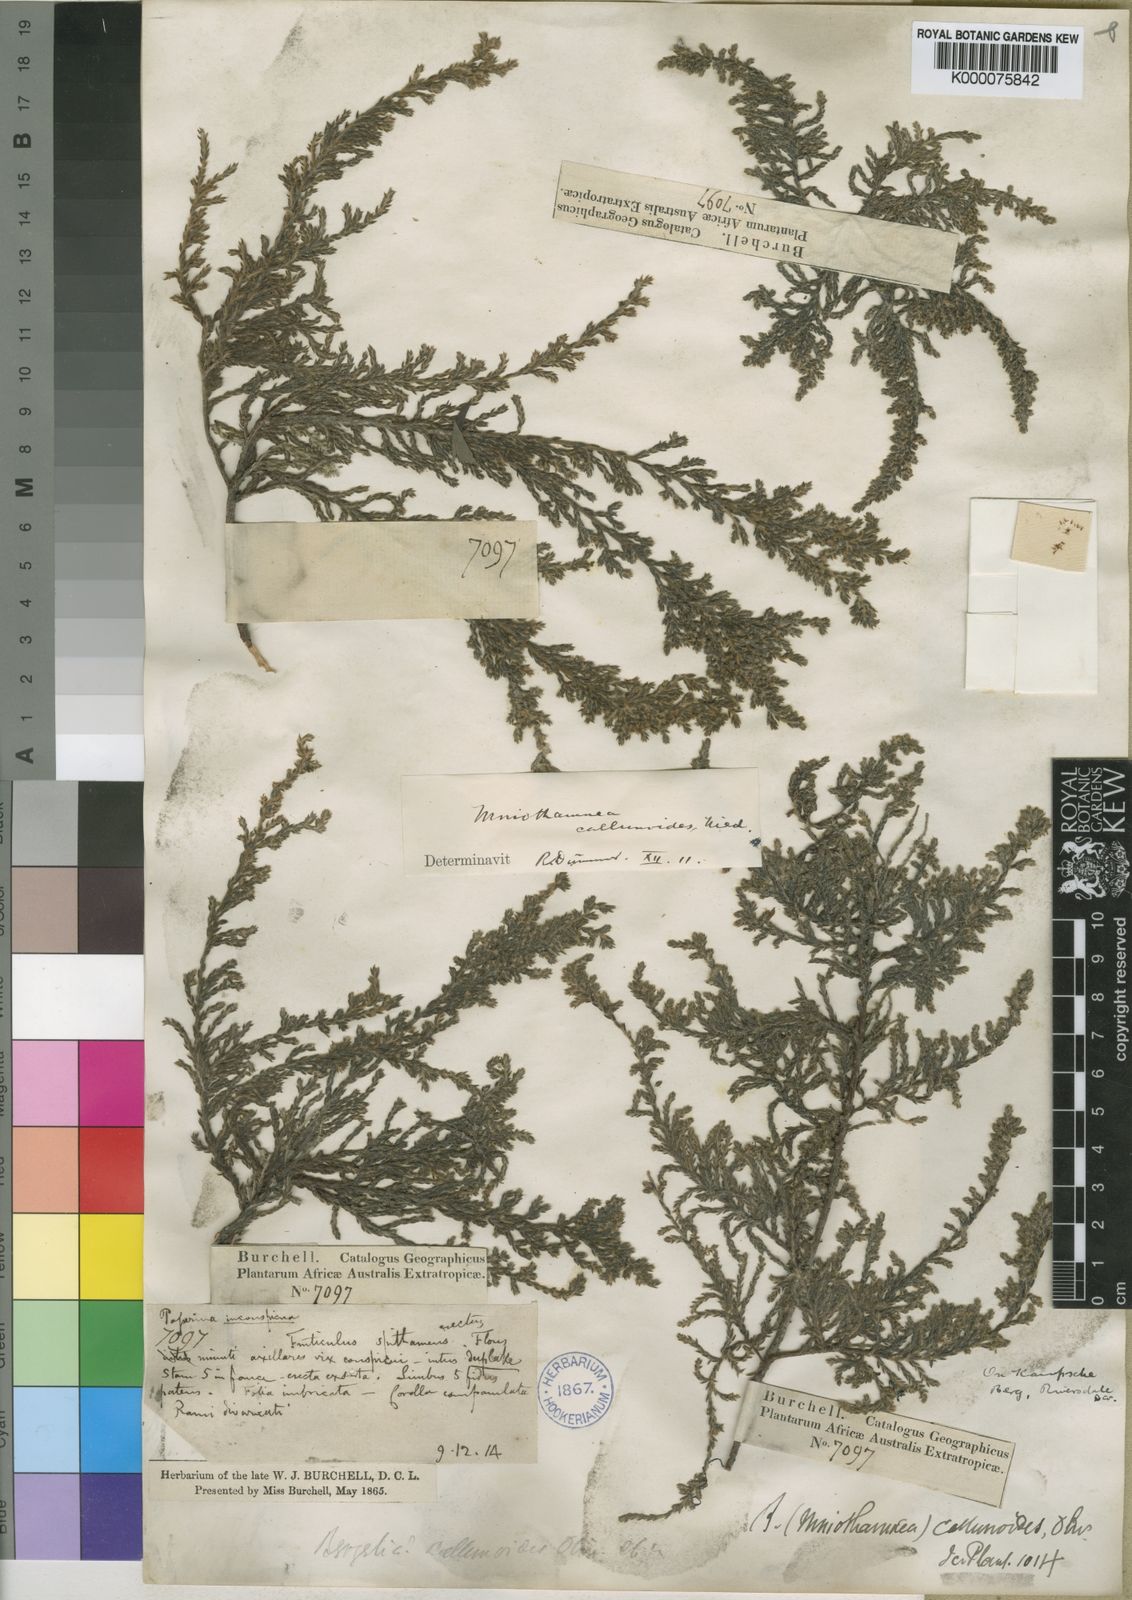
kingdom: Plantae
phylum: Tracheophyta
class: Magnoliopsida
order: Bruniales
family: Bruniaceae
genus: Brunia
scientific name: Brunia
